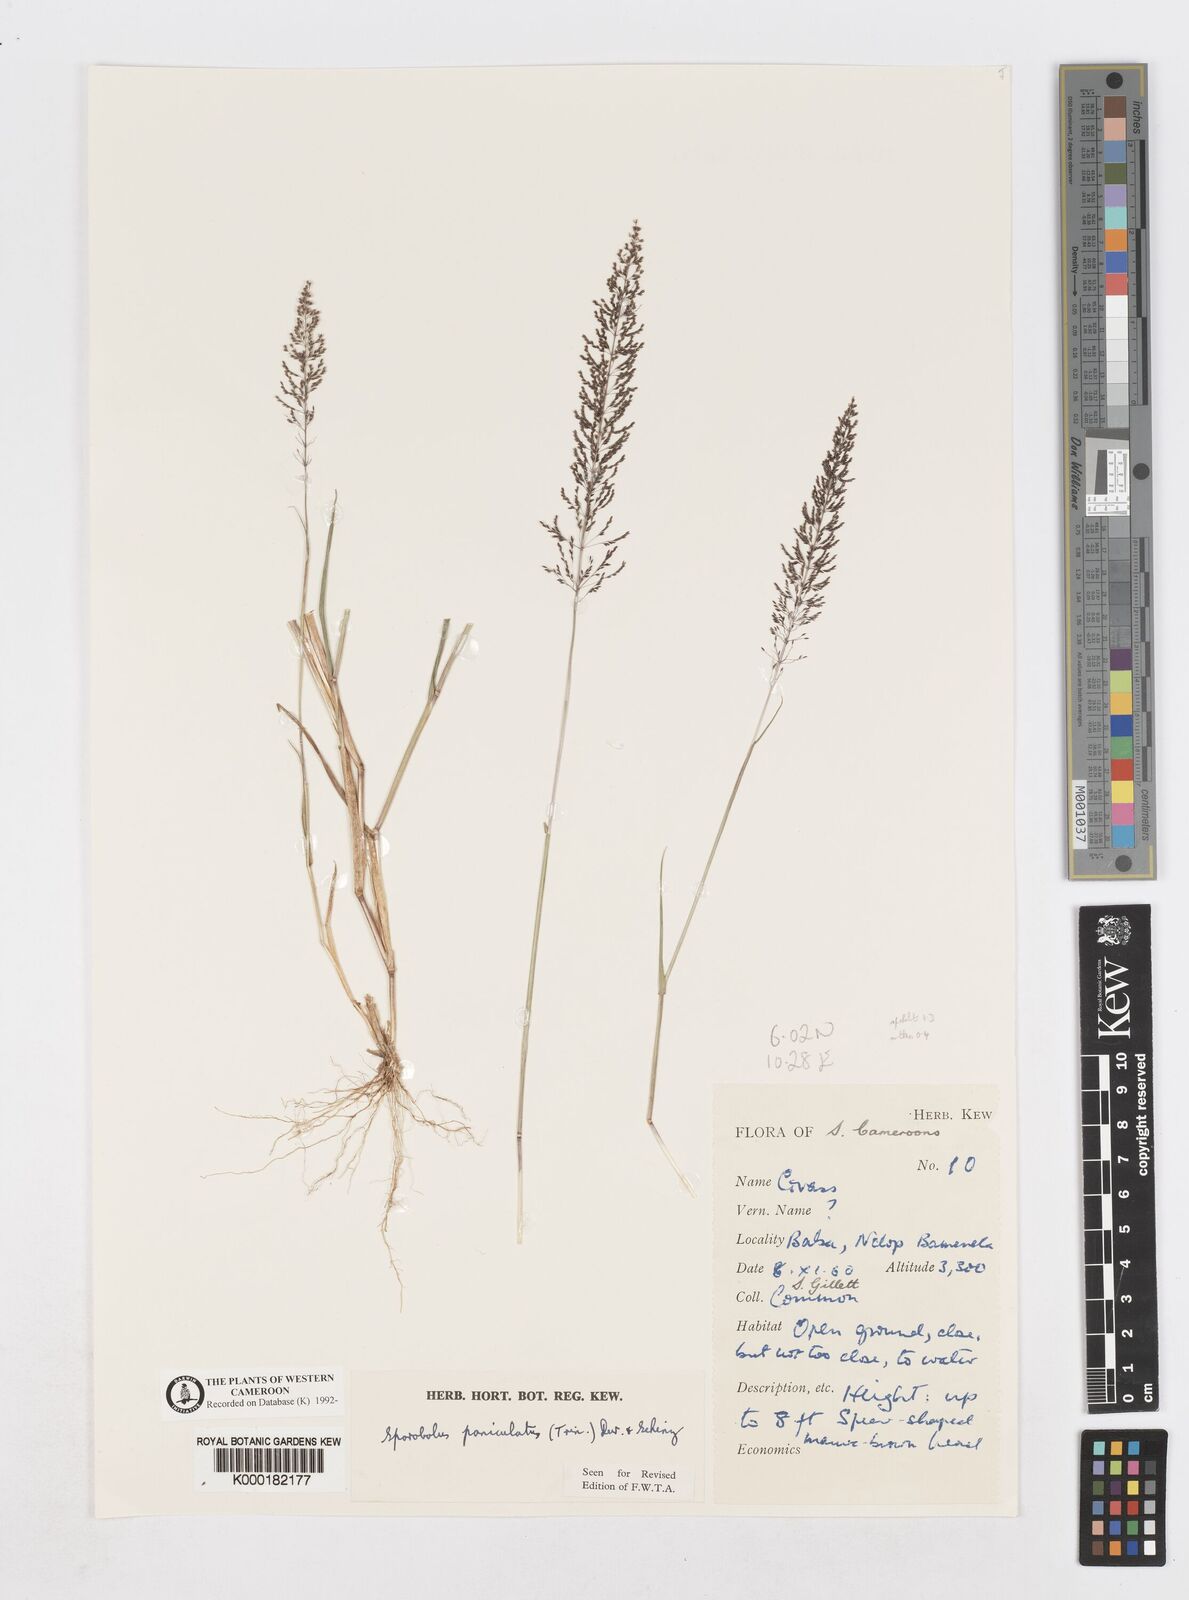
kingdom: Plantae
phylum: Tracheophyta
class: Liliopsida
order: Poales
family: Poaceae
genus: Sporobolus
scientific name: Sporobolus paniculatus
